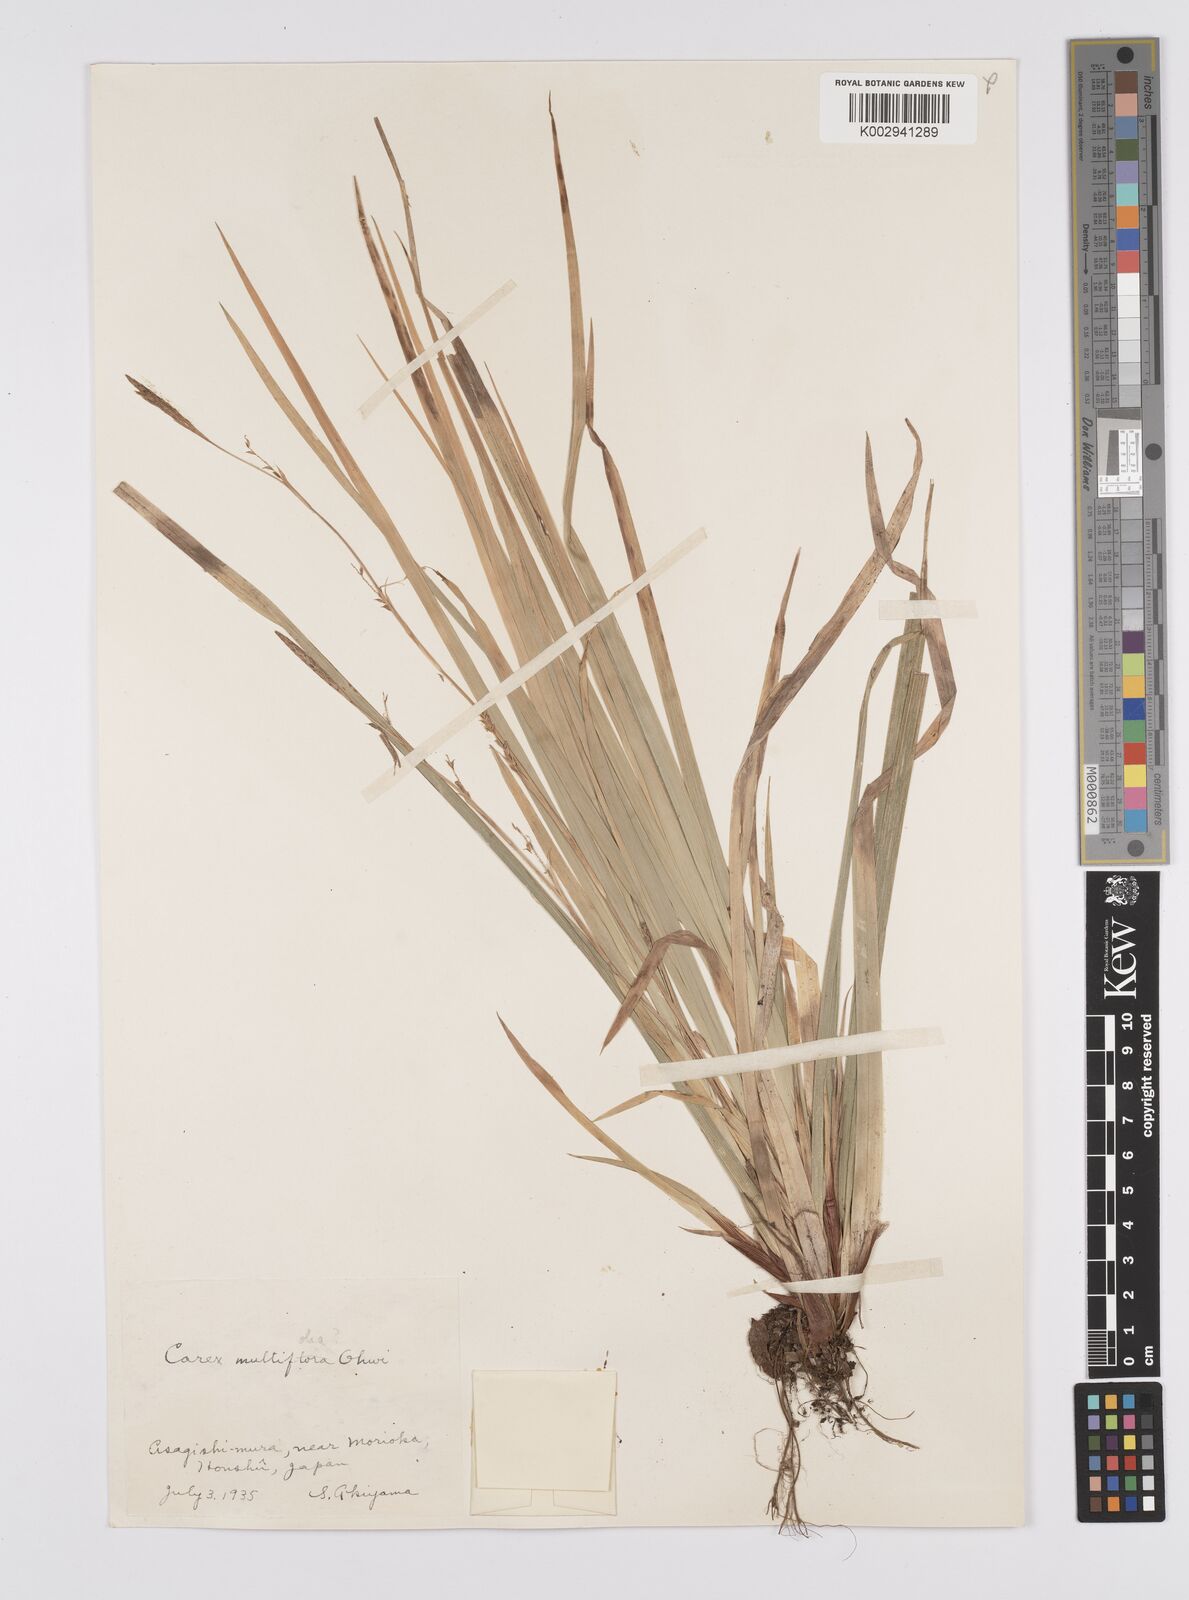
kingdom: Plantae
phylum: Tracheophyta
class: Liliopsida
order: Poales
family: Cyperaceae
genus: Carex
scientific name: Carex dolichostachya
